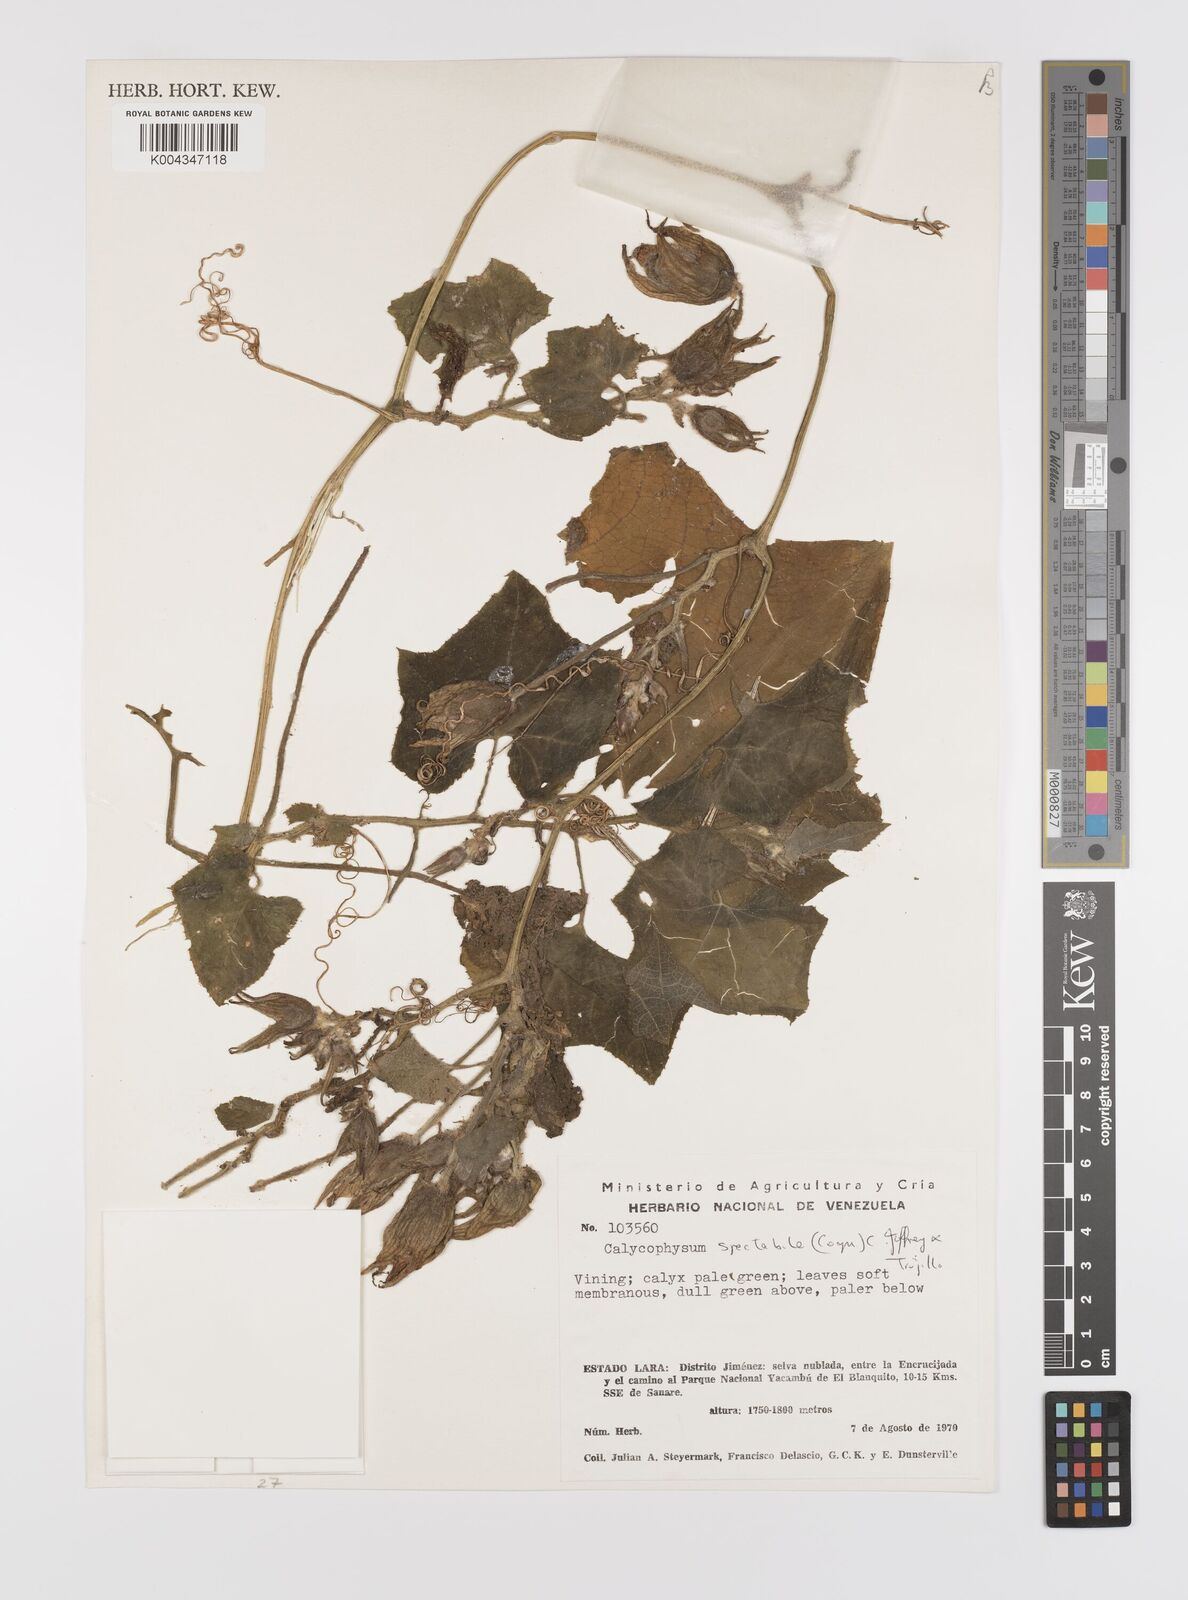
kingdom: Plantae
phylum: Tracheophyta
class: Magnoliopsida
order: Cucurbitales
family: Cucurbitaceae
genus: Calycophysum
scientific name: Calycophysum spectabile
